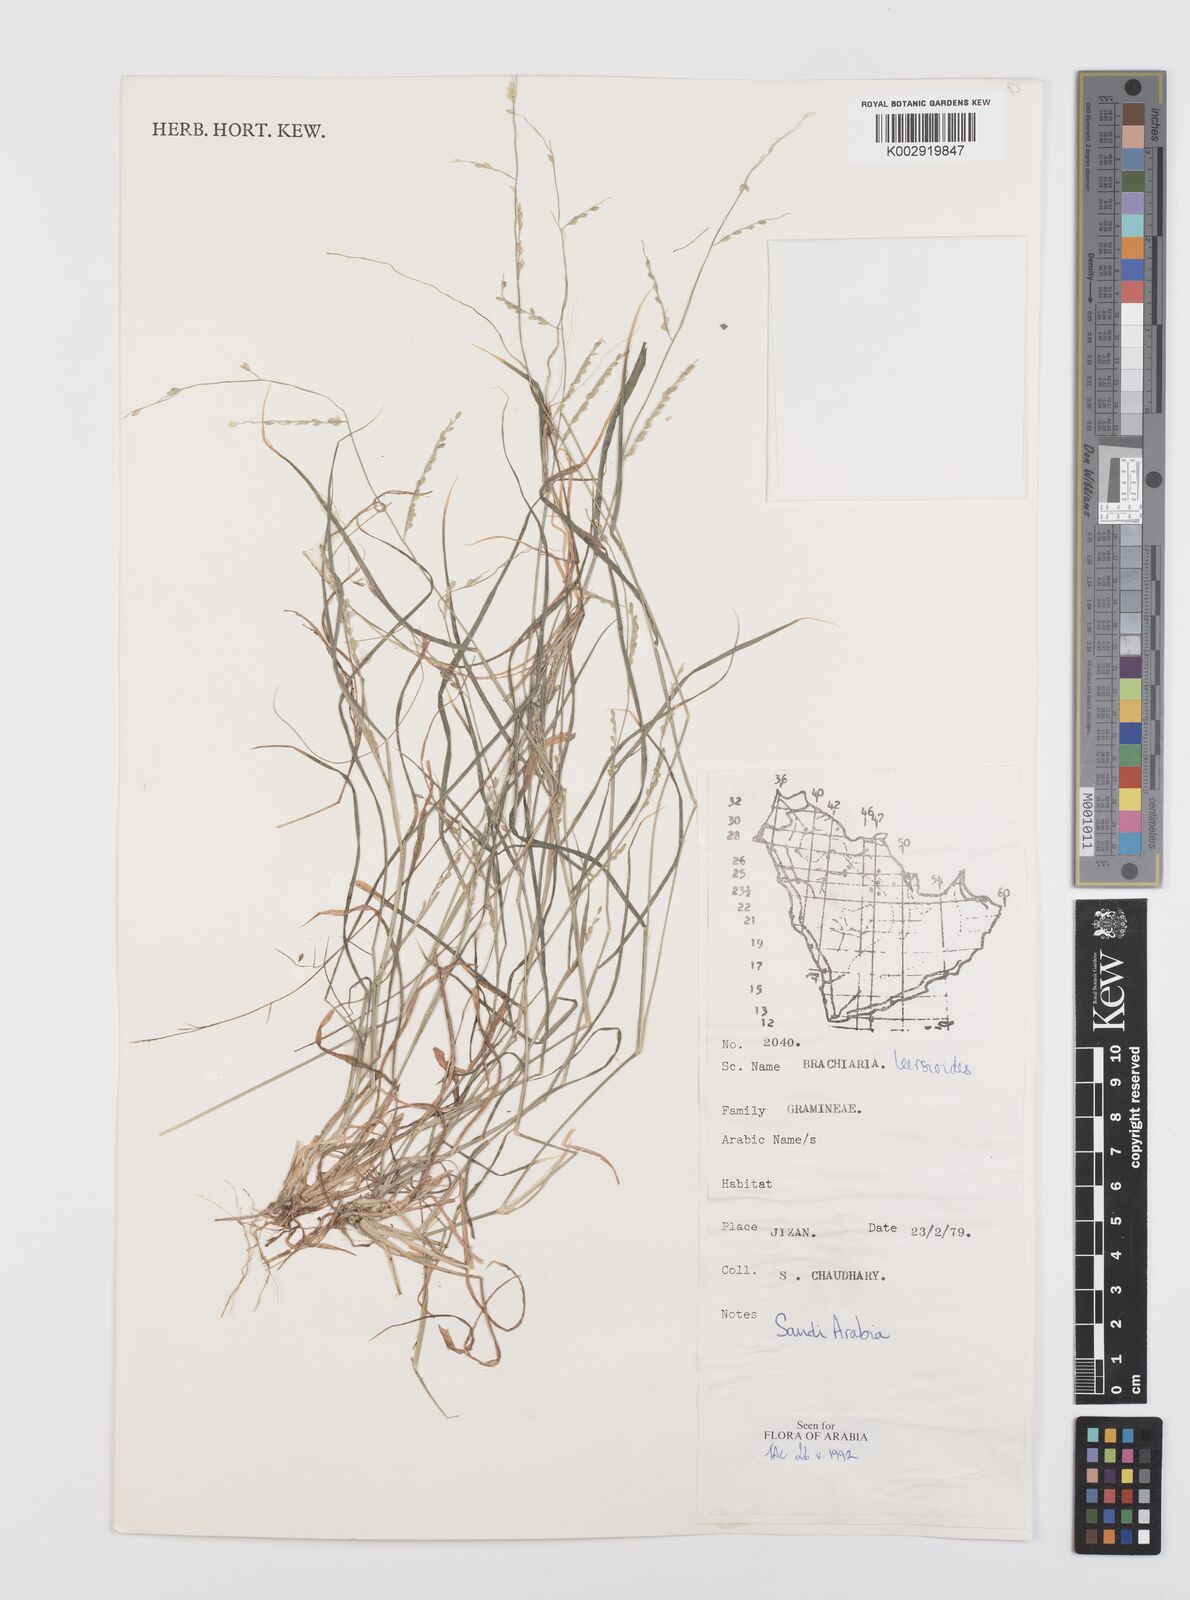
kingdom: Plantae
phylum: Tracheophyta
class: Liliopsida
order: Poales
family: Poaceae
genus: Urochloa
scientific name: Urochloa leersioides
